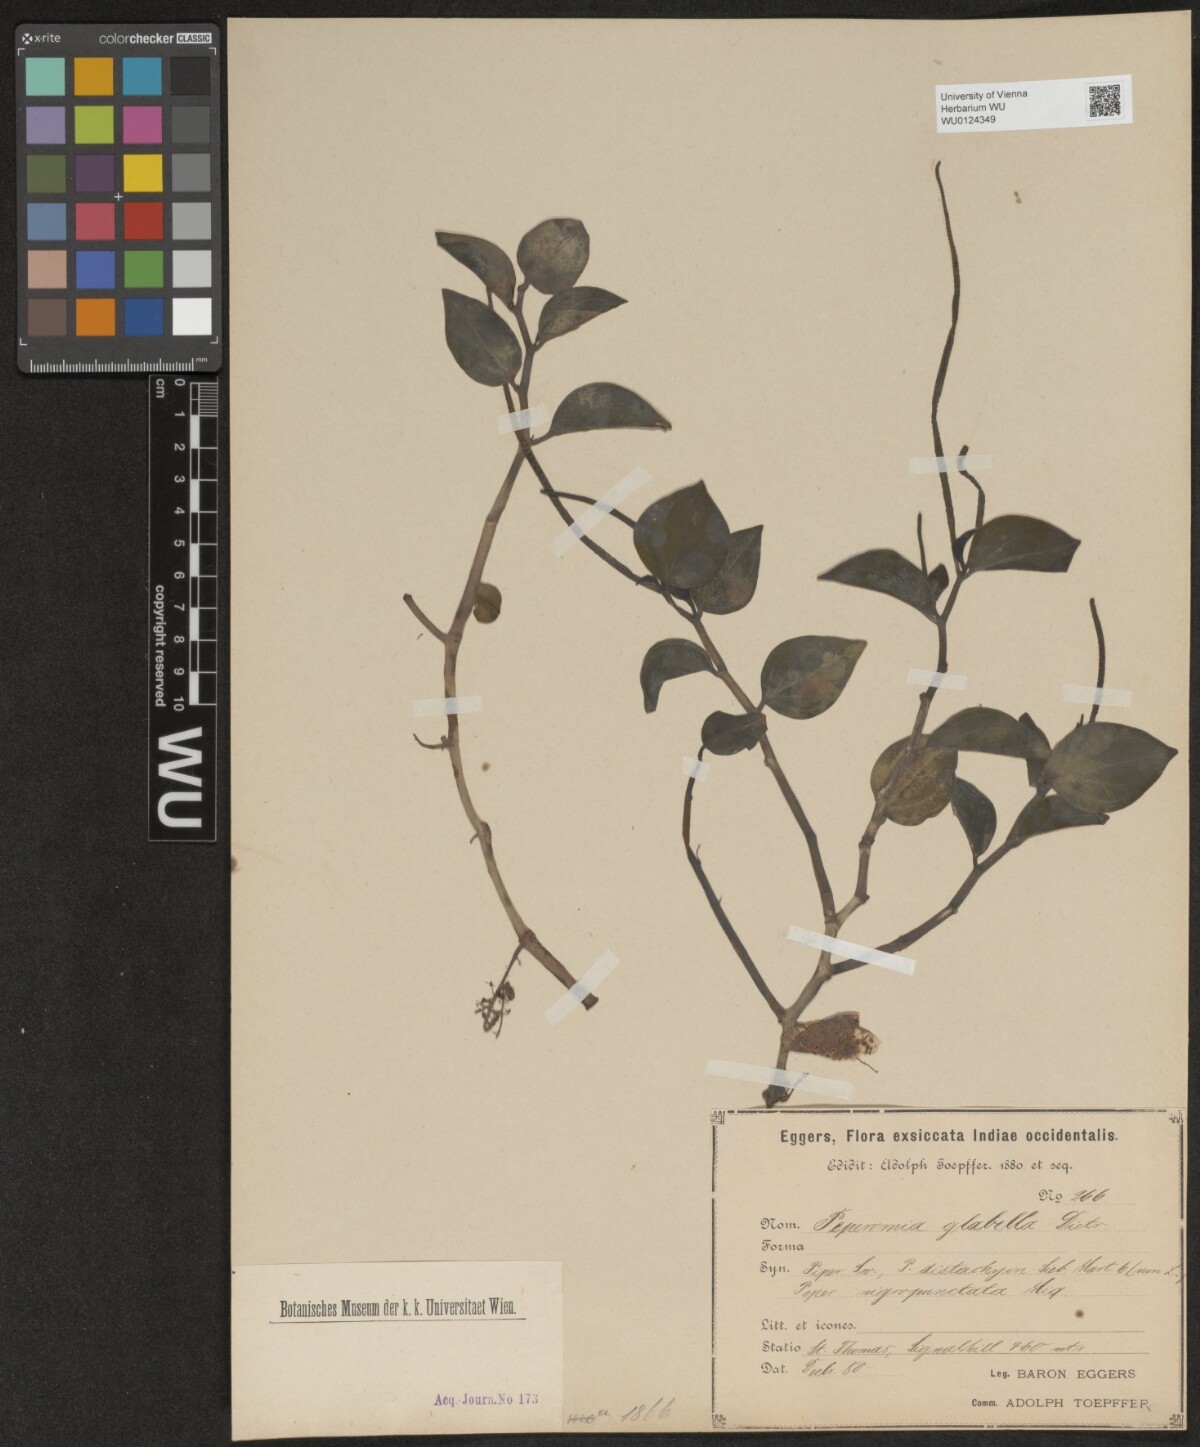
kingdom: Plantae
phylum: Tracheophyta
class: Magnoliopsida
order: Piperales
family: Piperaceae
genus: Peperomia
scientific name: Peperomia glabella
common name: Cypress peperomia
